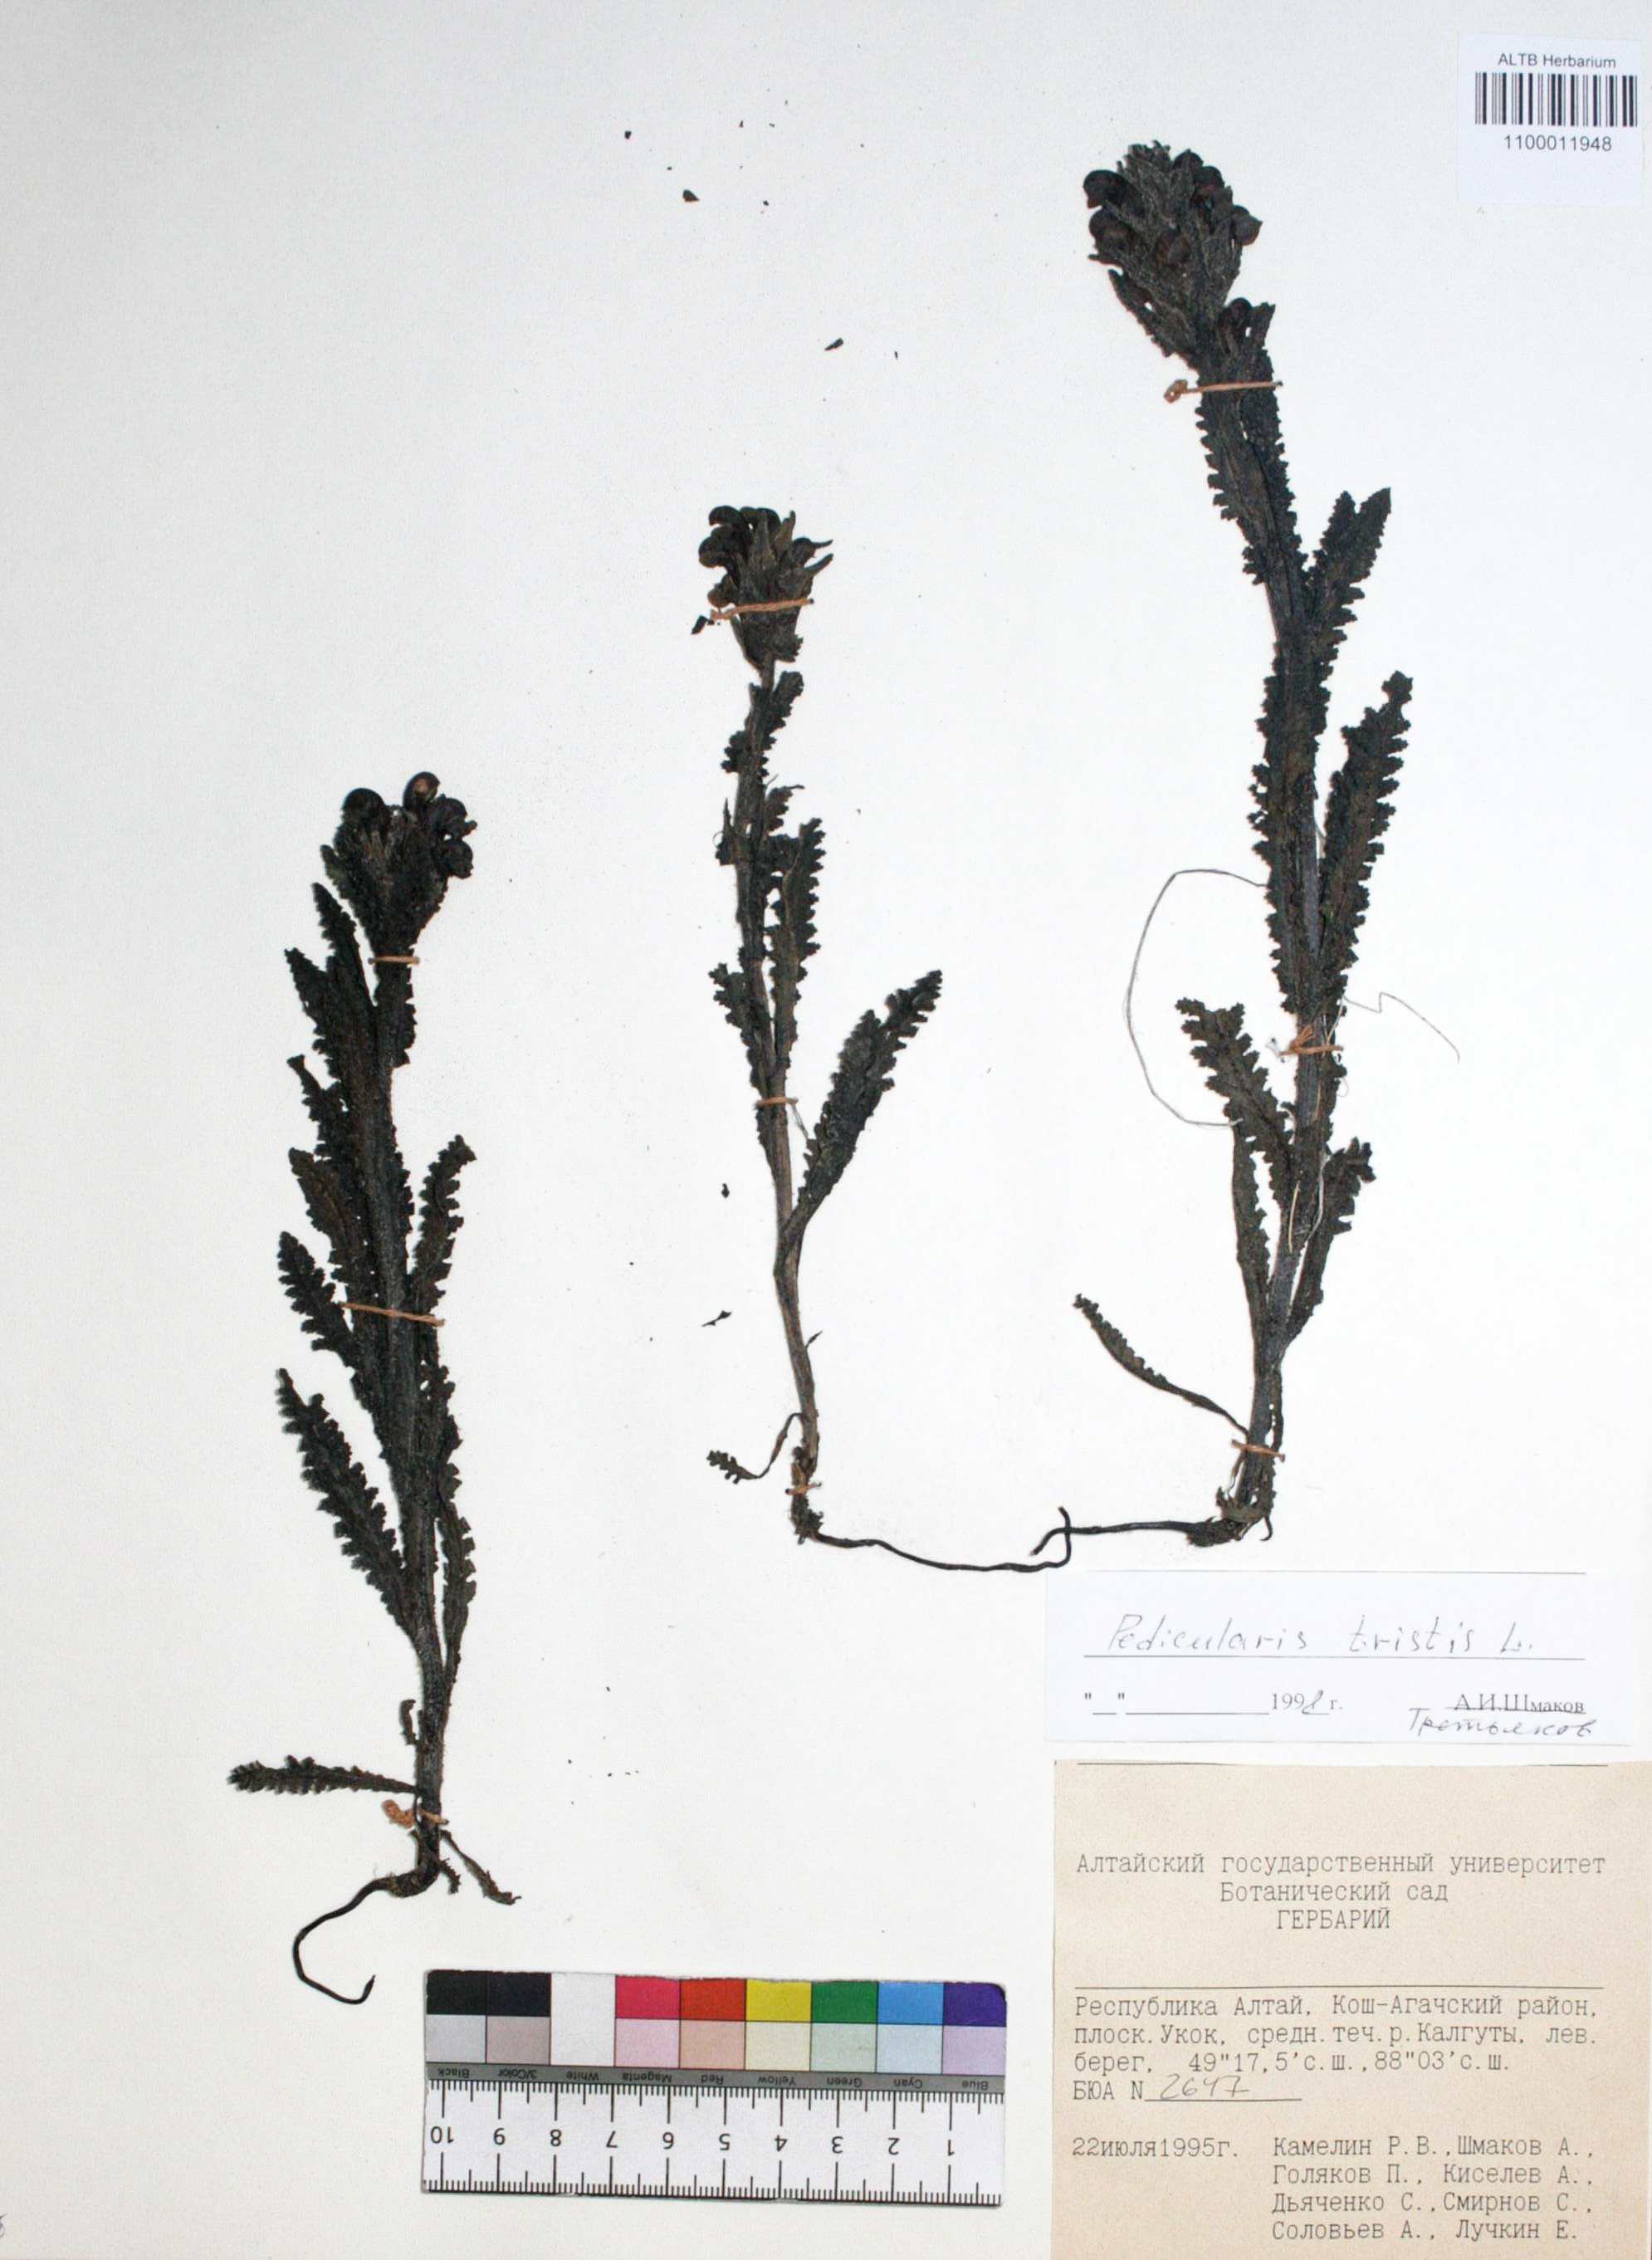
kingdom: Plantae
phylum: Tracheophyta
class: Magnoliopsida
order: Lamiales
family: Orobanchaceae
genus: Pedicularis
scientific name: Pedicularis tristis
